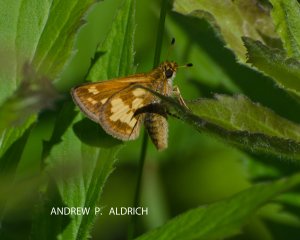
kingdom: Animalia
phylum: Arthropoda
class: Insecta
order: Lepidoptera
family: Hesperiidae
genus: Polites
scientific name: Polites coras
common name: Peck's Skipper
